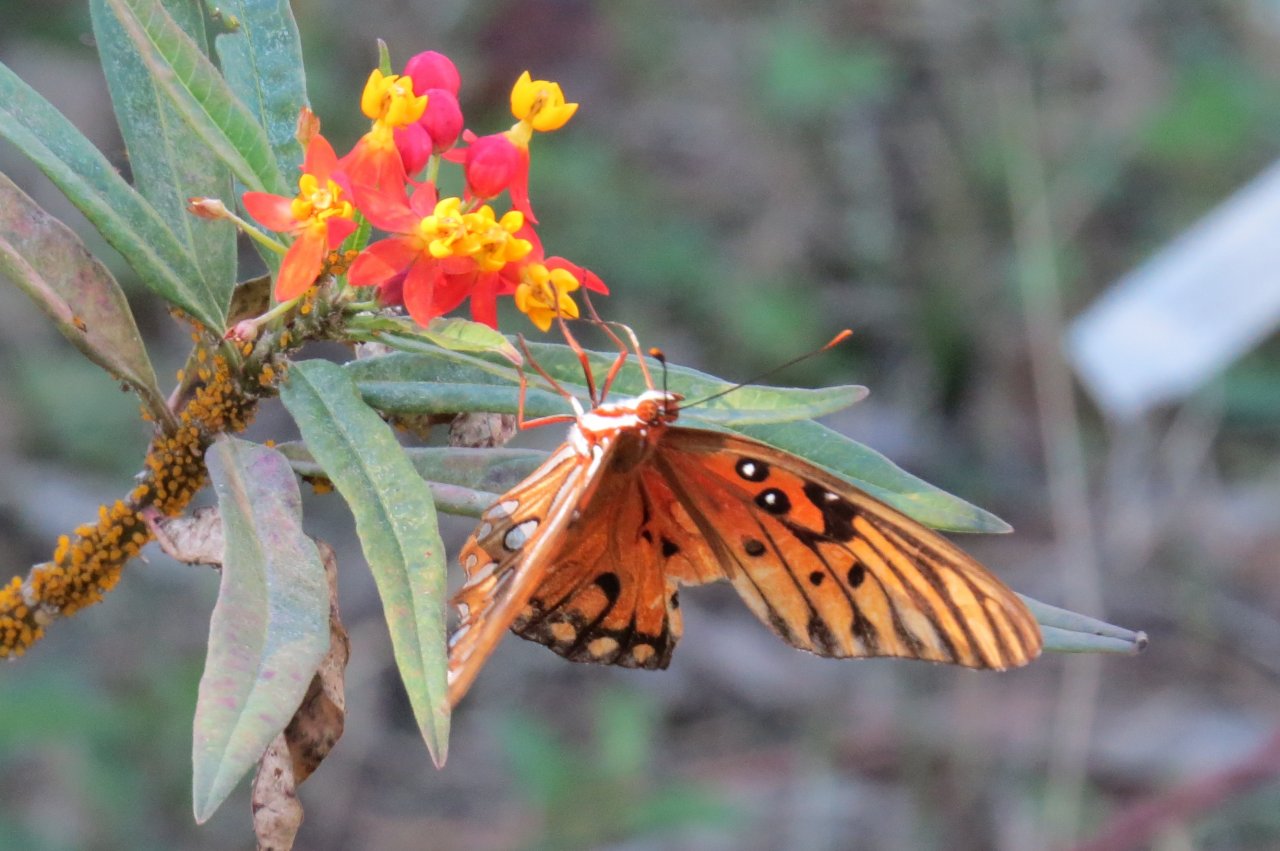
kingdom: Animalia
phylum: Arthropoda
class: Insecta
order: Lepidoptera
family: Nymphalidae
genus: Dione
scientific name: Dione vanillae
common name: Gulf Fritillary
